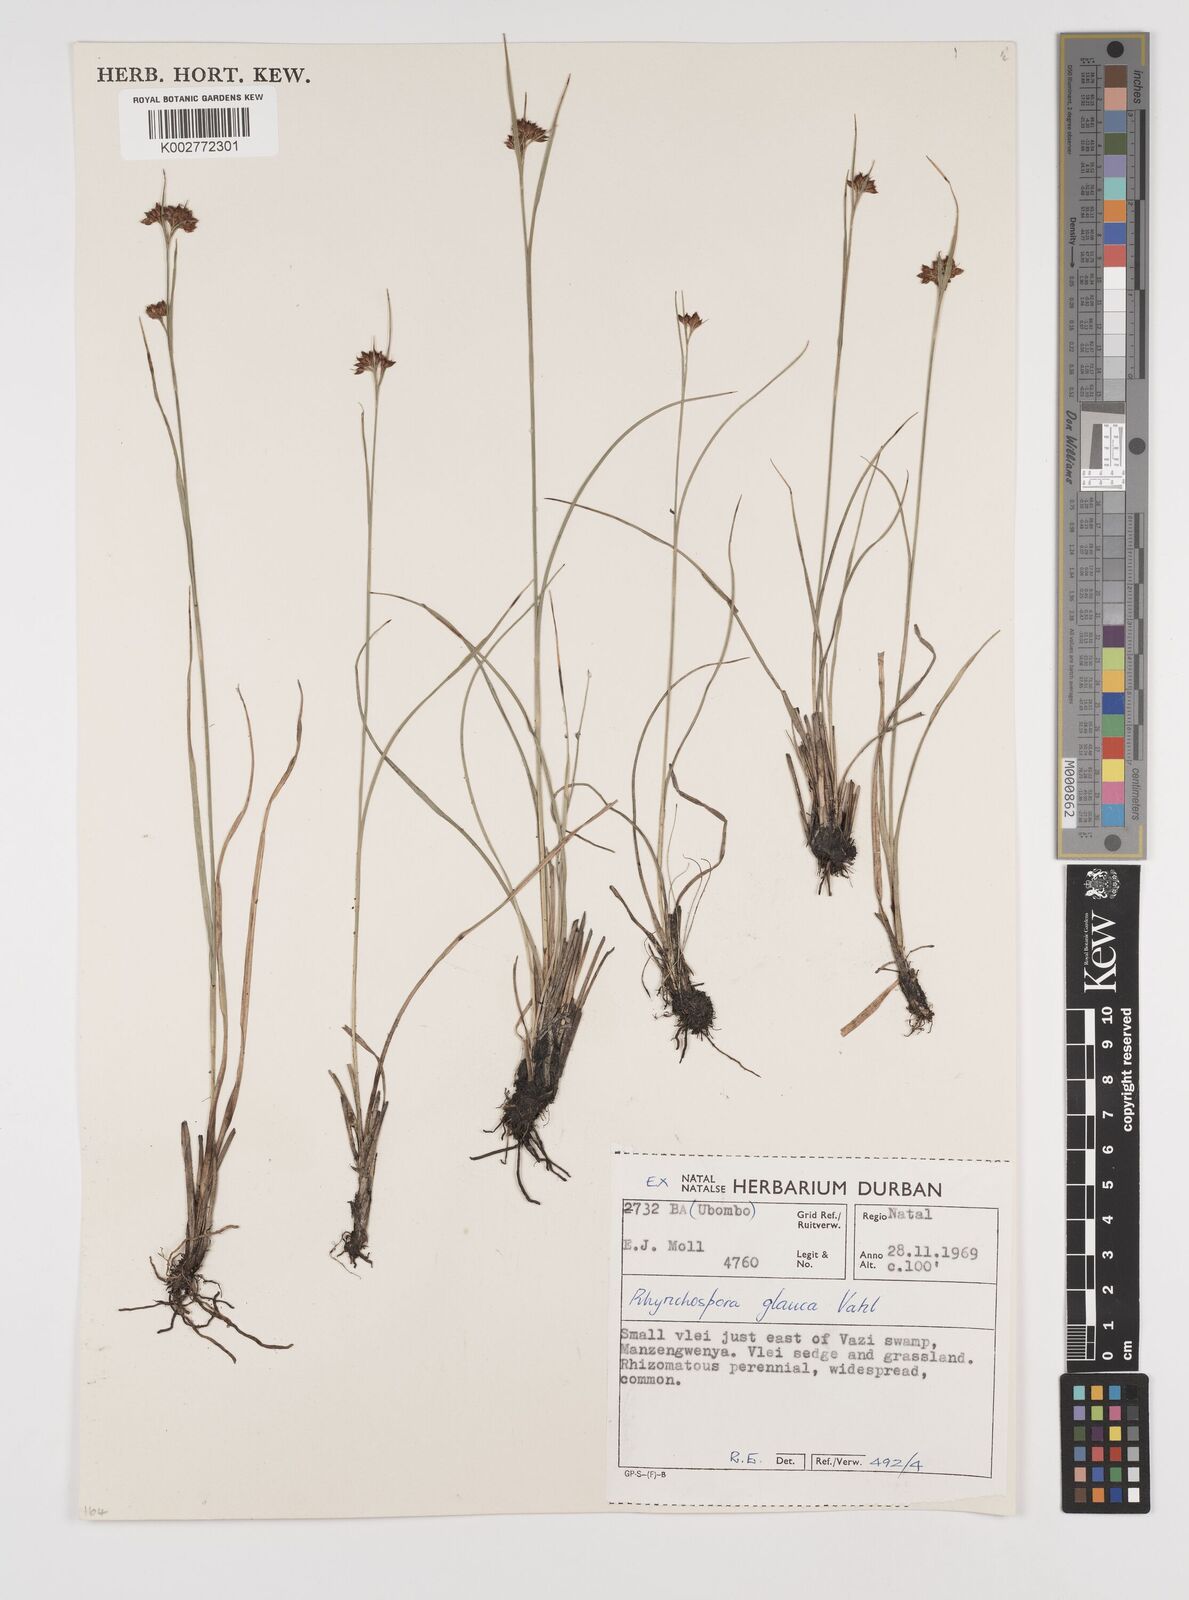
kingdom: Plantae
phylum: Tracheophyta
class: Liliopsida
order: Poales
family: Cyperaceae
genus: Rhynchospora
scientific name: Rhynchospora rugosa
